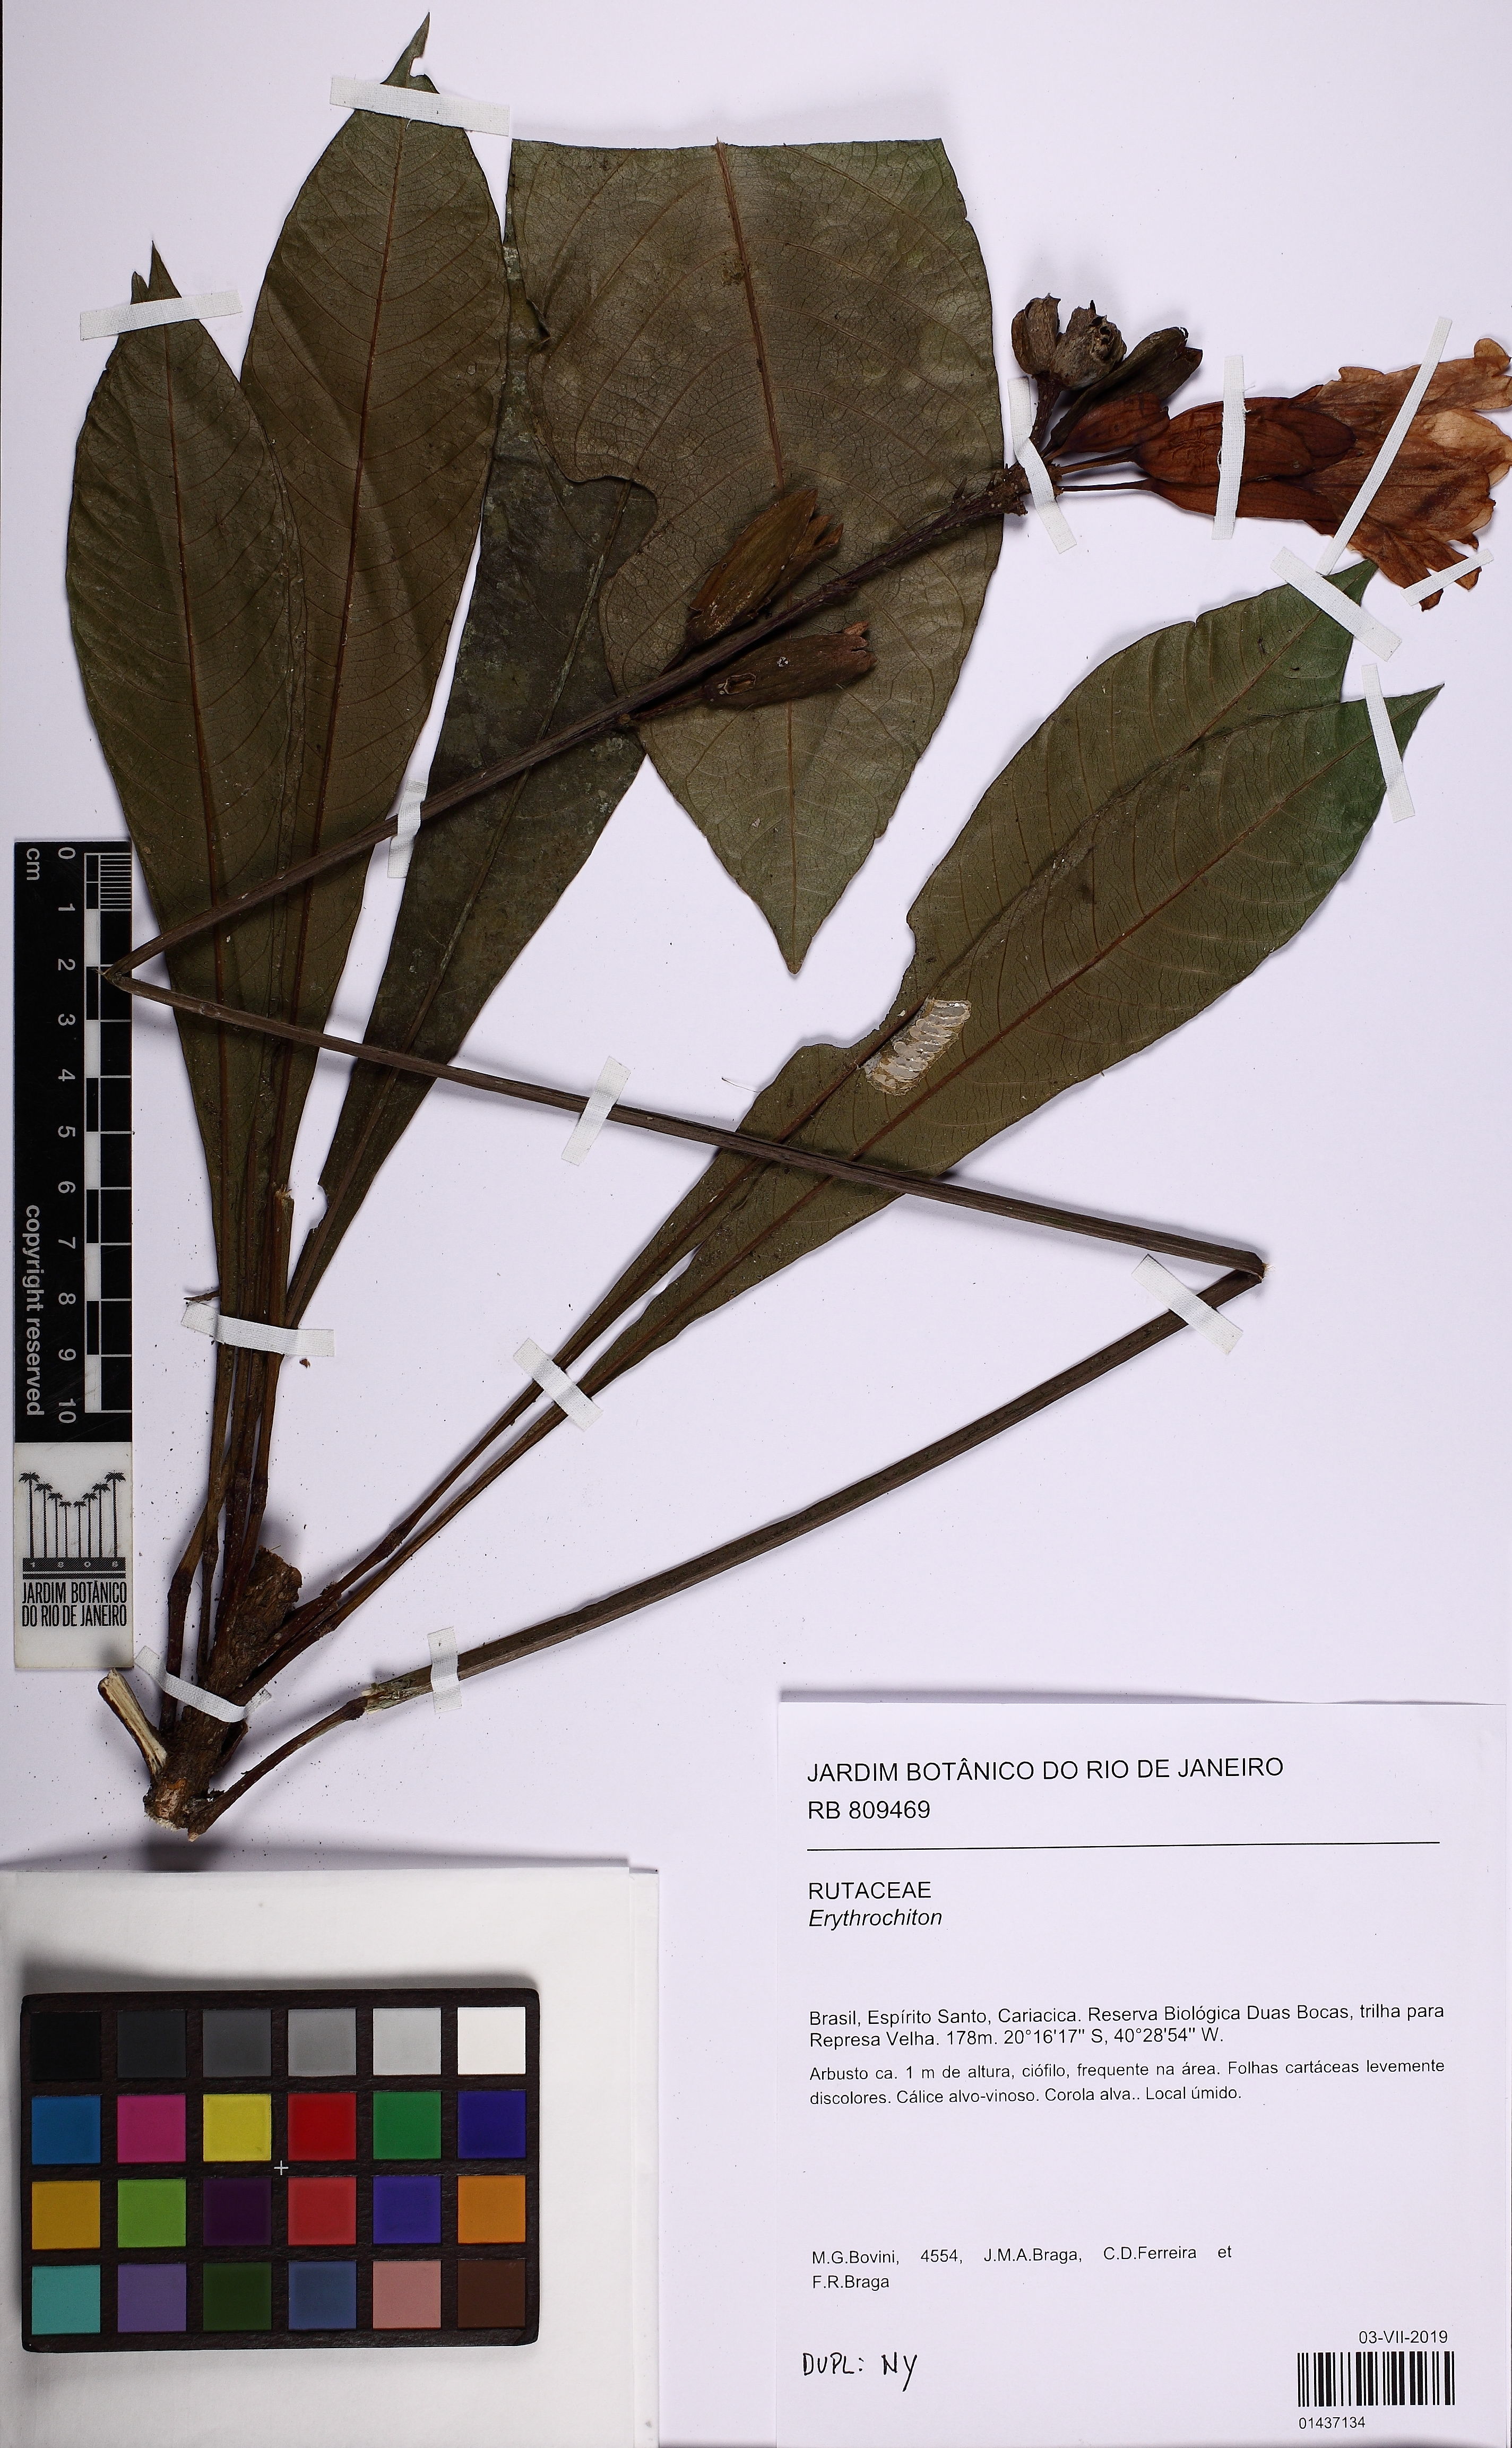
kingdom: Plantae
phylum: Tracheophyta
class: Magnoliopsida
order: Sapindales
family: Rutaceae
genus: Erythrochiton
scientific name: Erythrochiton
